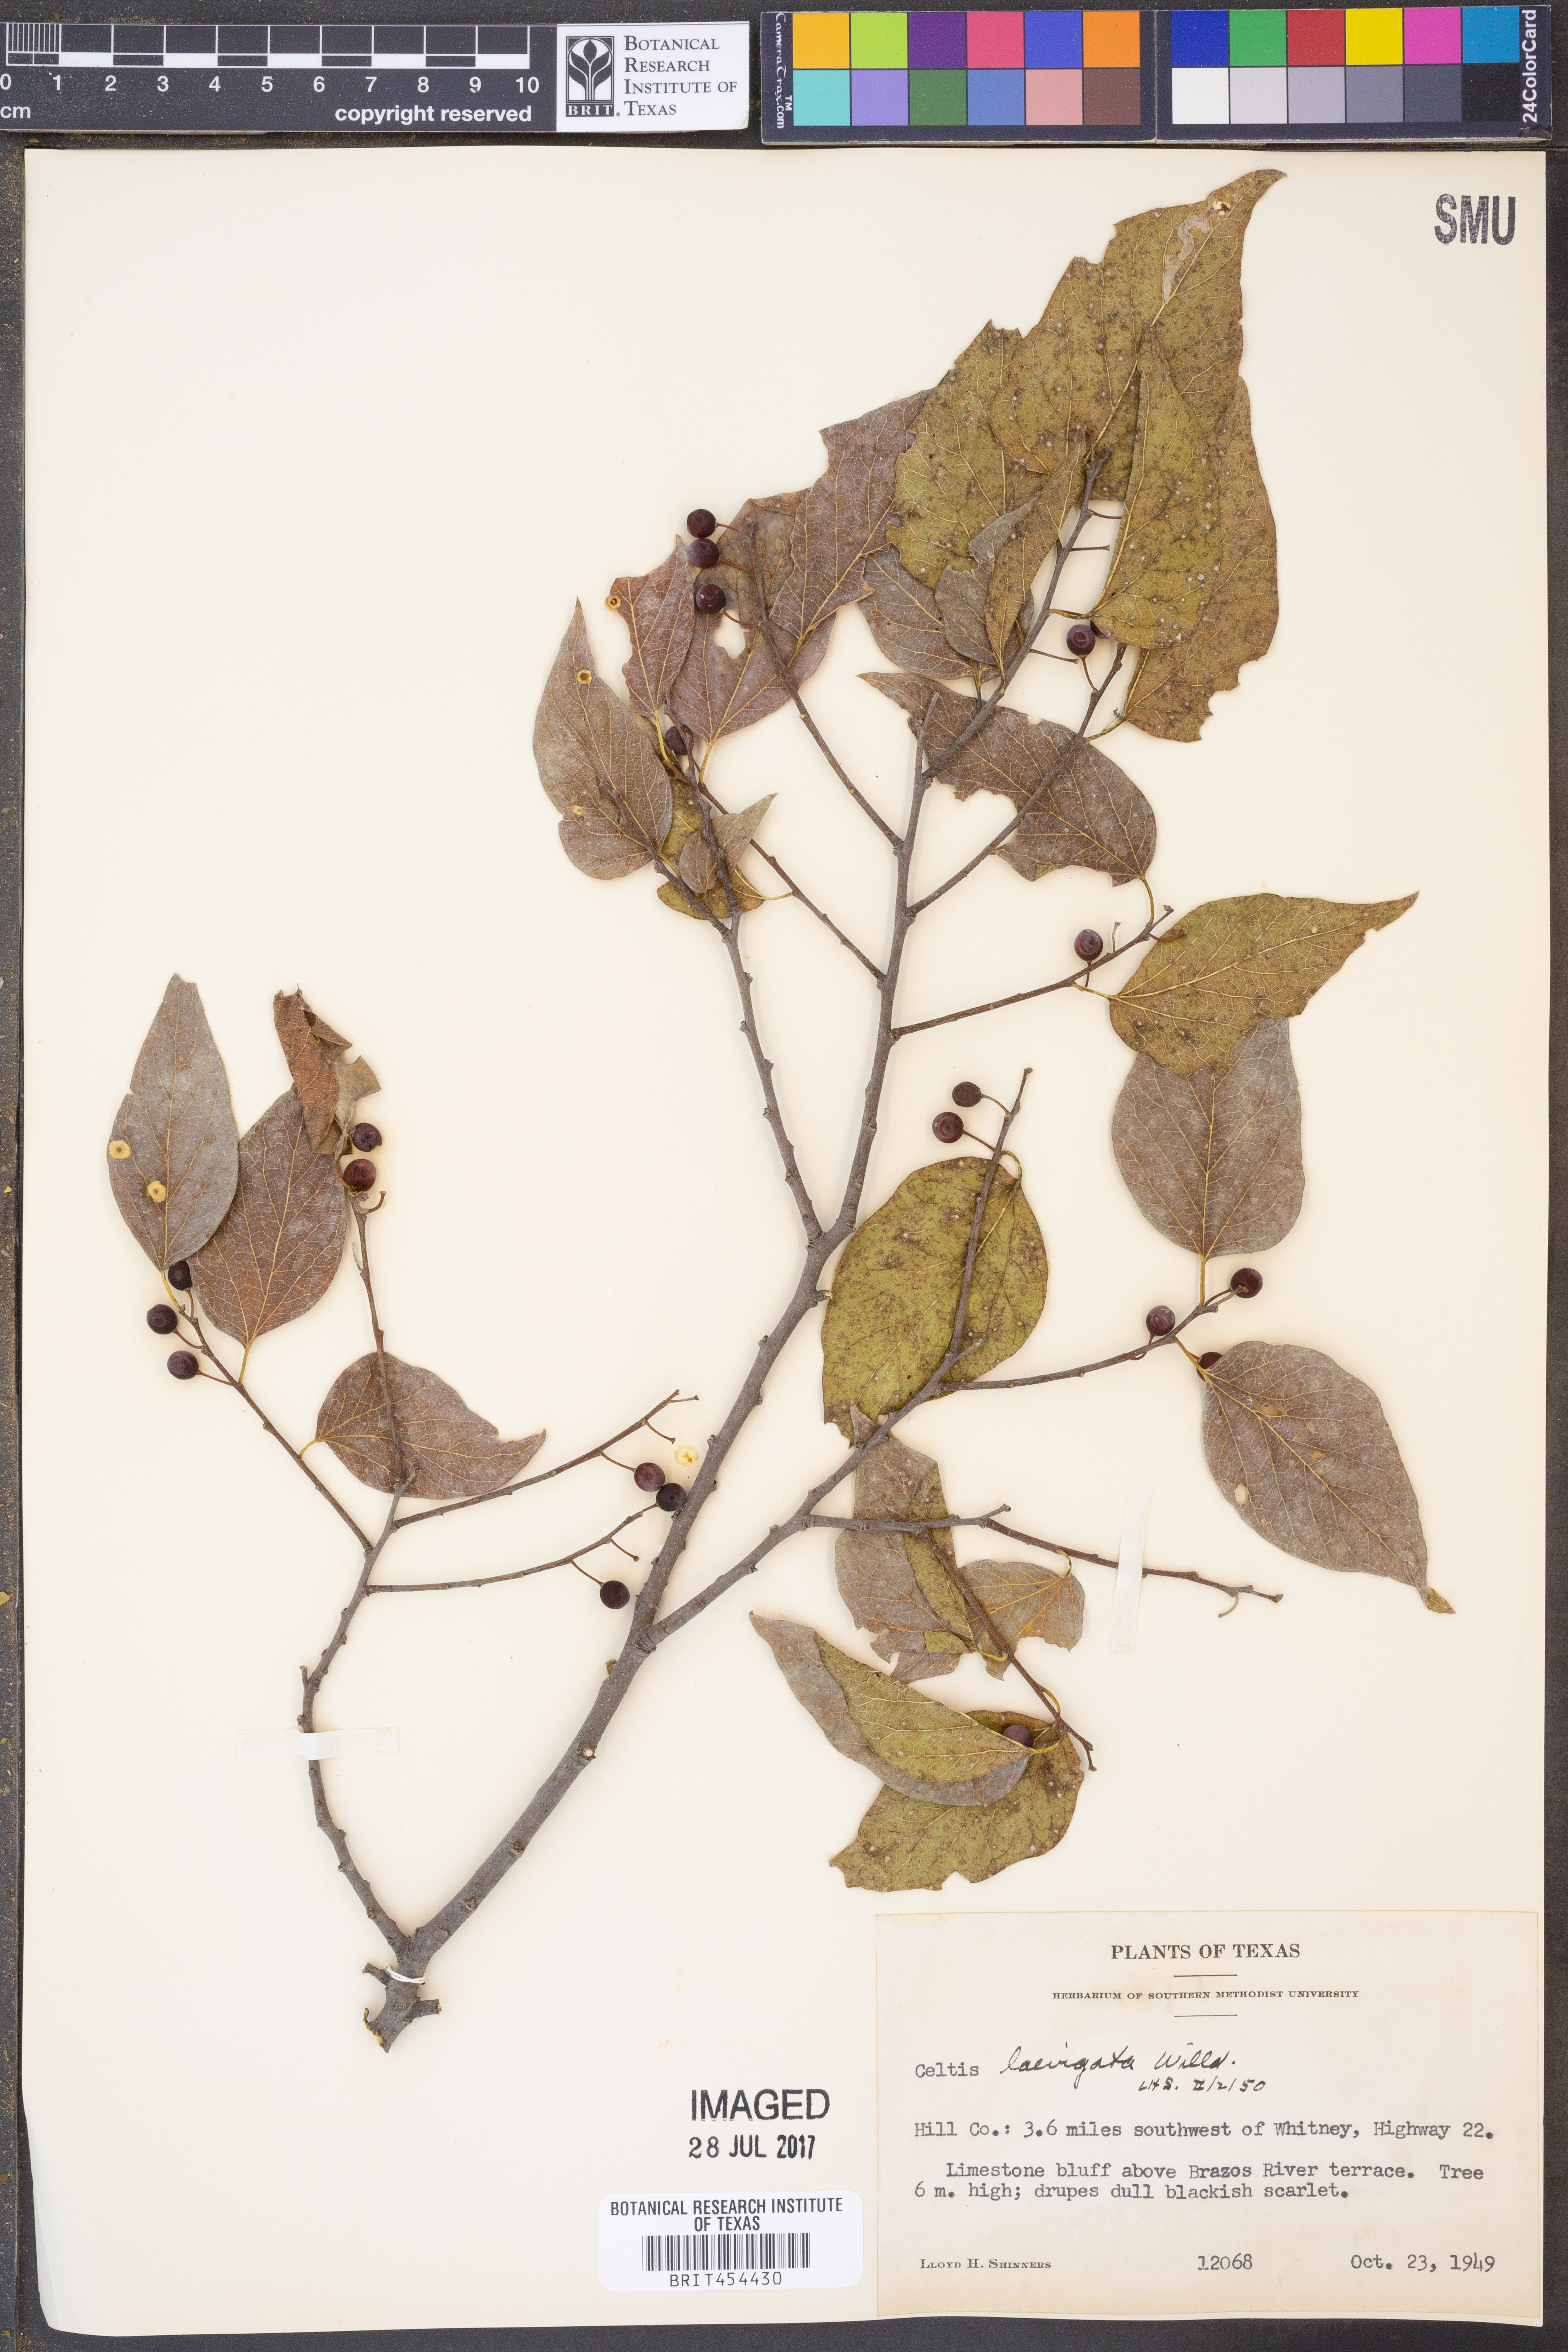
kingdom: Plantae
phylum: Tracheophyta
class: Magnoliopsida
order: Rosales
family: Cannabaceae
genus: Celtis
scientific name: Celtis laevigata
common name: Sugarberry
